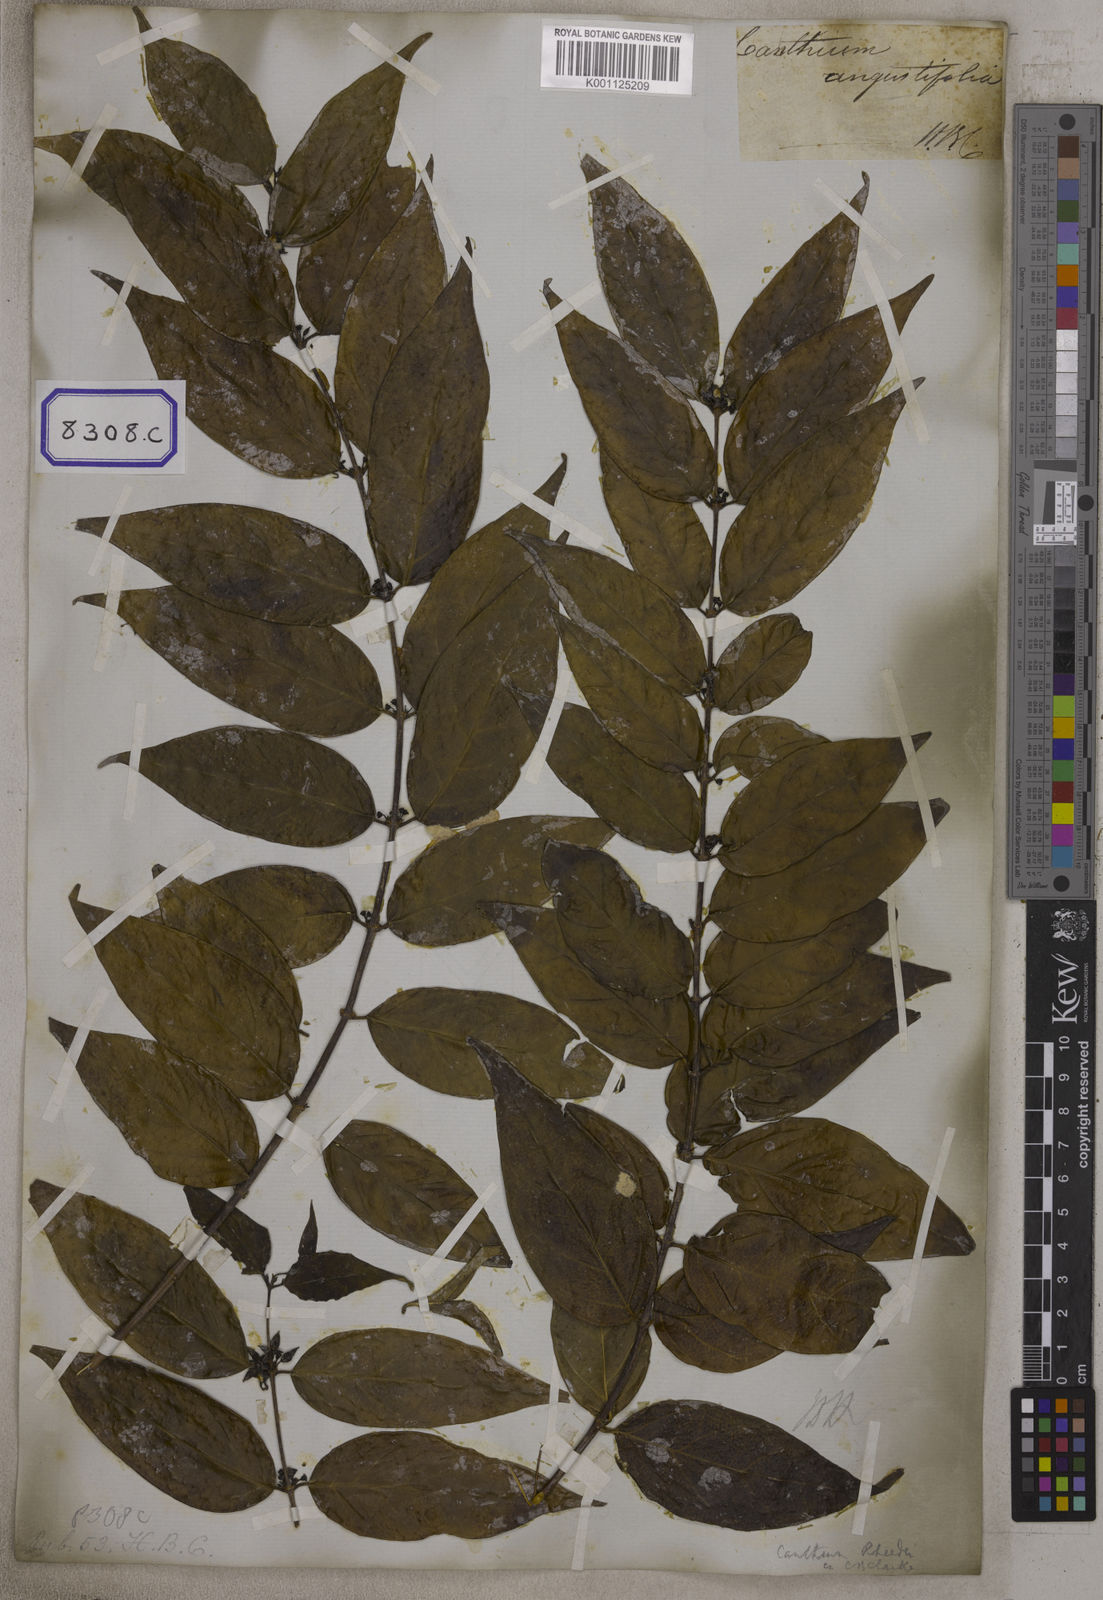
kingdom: Plantae
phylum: Tracheophyta
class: Magnoliopsida
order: Gentianales
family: Rubiaceae
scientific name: Rubiaceae
